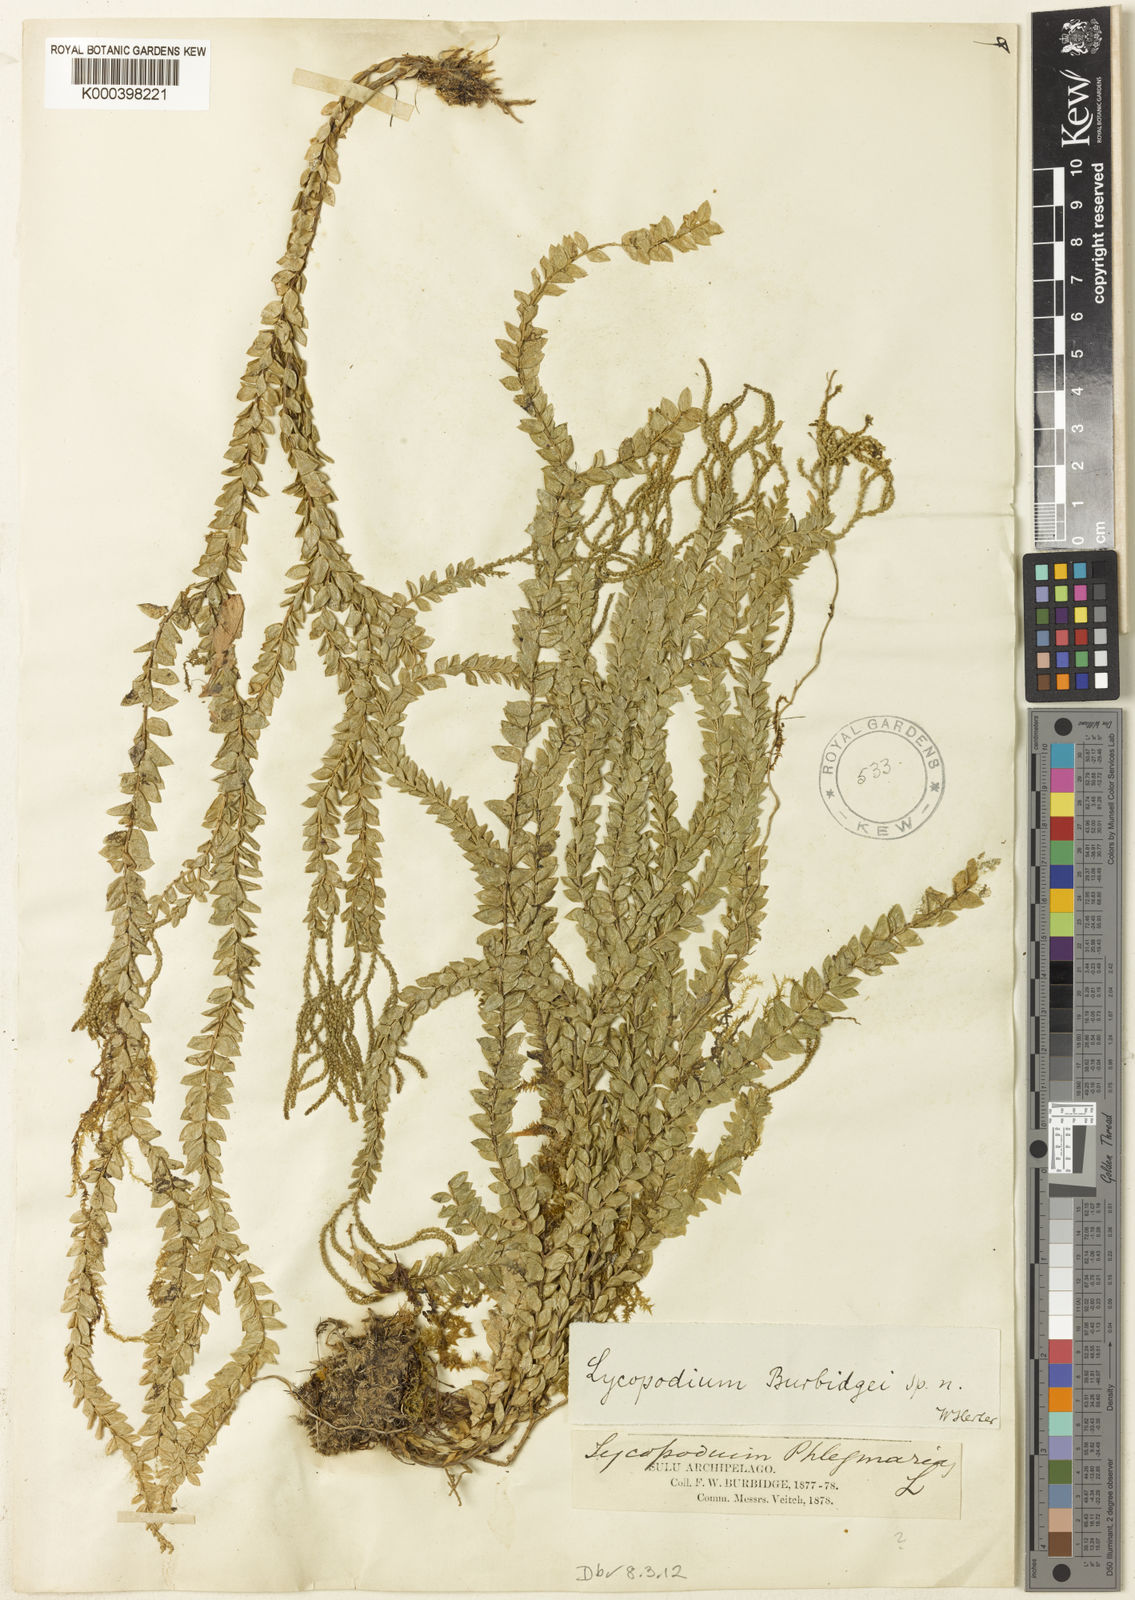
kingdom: Plantae
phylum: Tracheophyta
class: Lycopodiopsida
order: Lycopodiales
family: Lycopodiaceae
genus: Phlegmariurus
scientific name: Phlegmariurus phlegmaria
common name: Coarse tassel-fern
